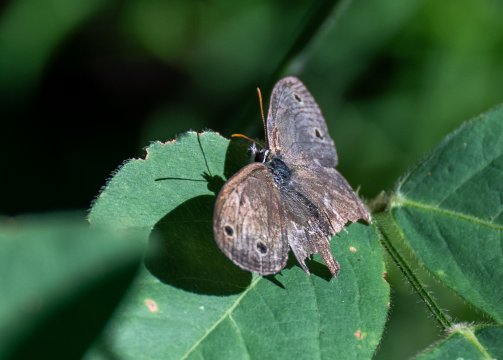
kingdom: Animalia
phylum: Arthropoda
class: Insecta
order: Lepidoptera
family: Nymphalidae
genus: Euptychia
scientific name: Euptychia cymela
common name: Little Wood Satyr
